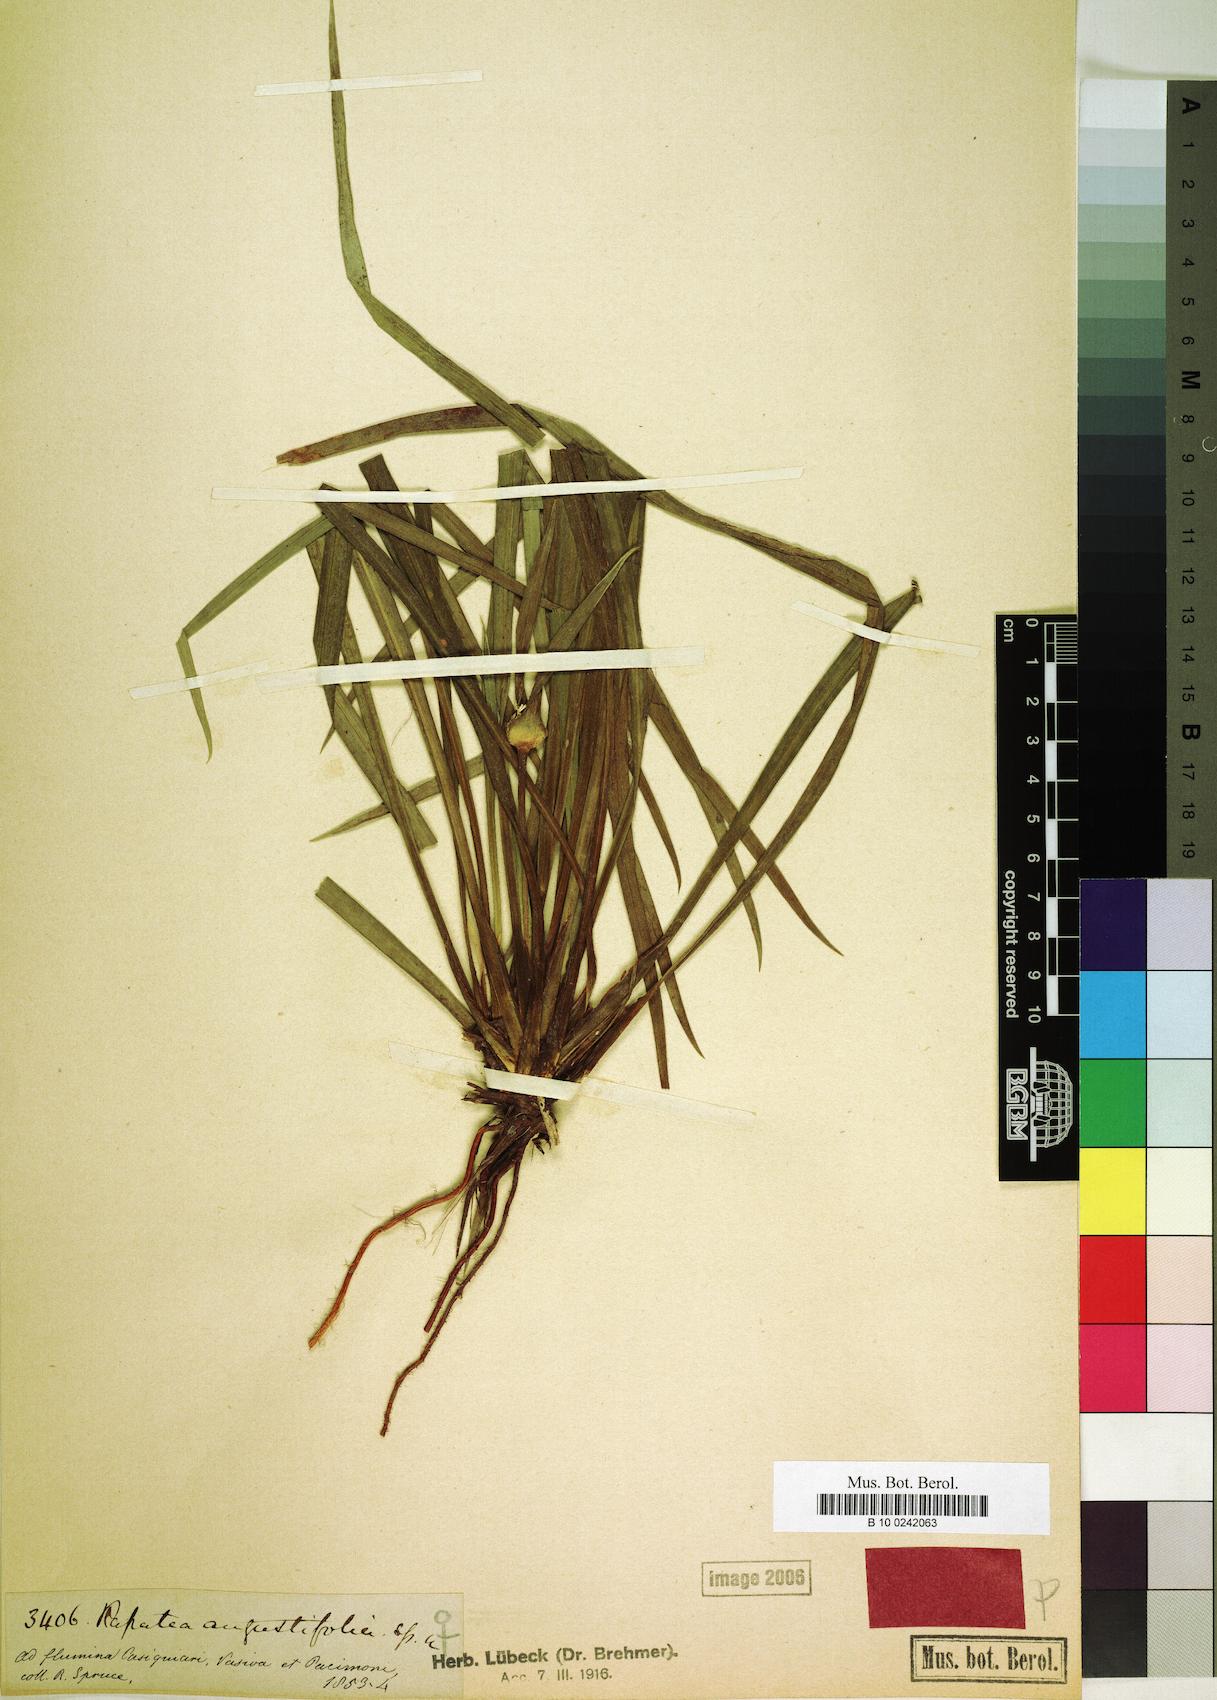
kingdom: Plantae
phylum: Tracheophyta
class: Liliopsida
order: Poales
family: Rapateaceae
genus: Rapatea
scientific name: Rapatea angustifolia
